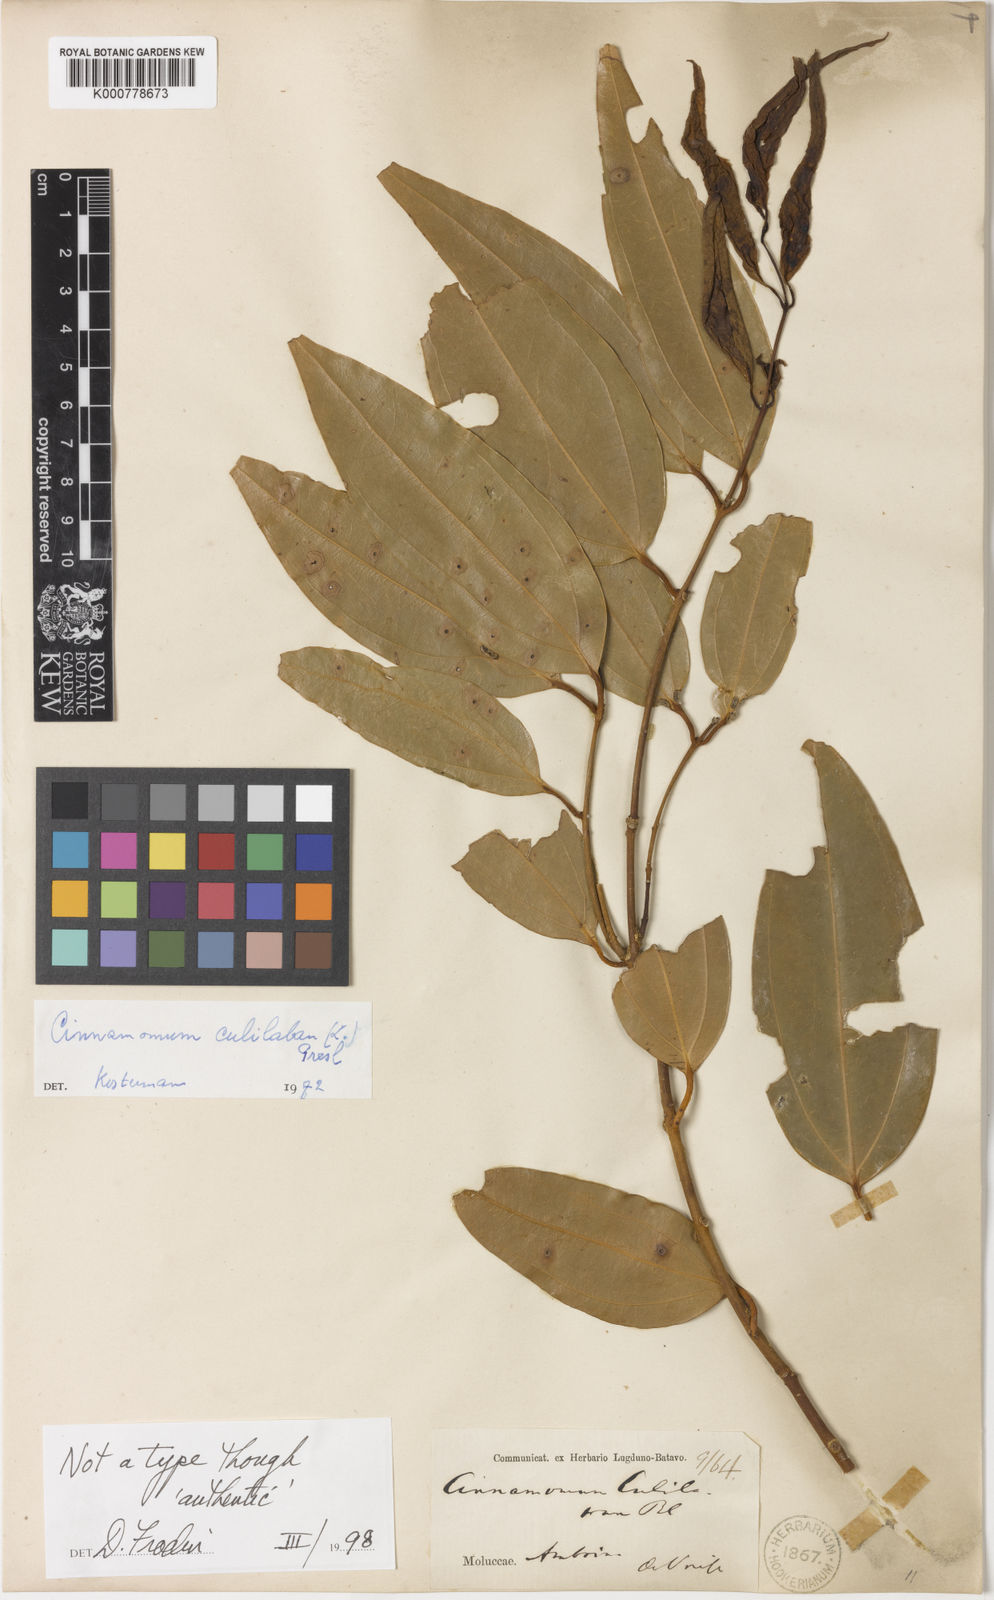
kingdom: Plantae
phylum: Tracheophyta
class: Magnoliopsida
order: Laurales
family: Lauraceae
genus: Cinnamomum
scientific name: Cinnamomum culitlawan
